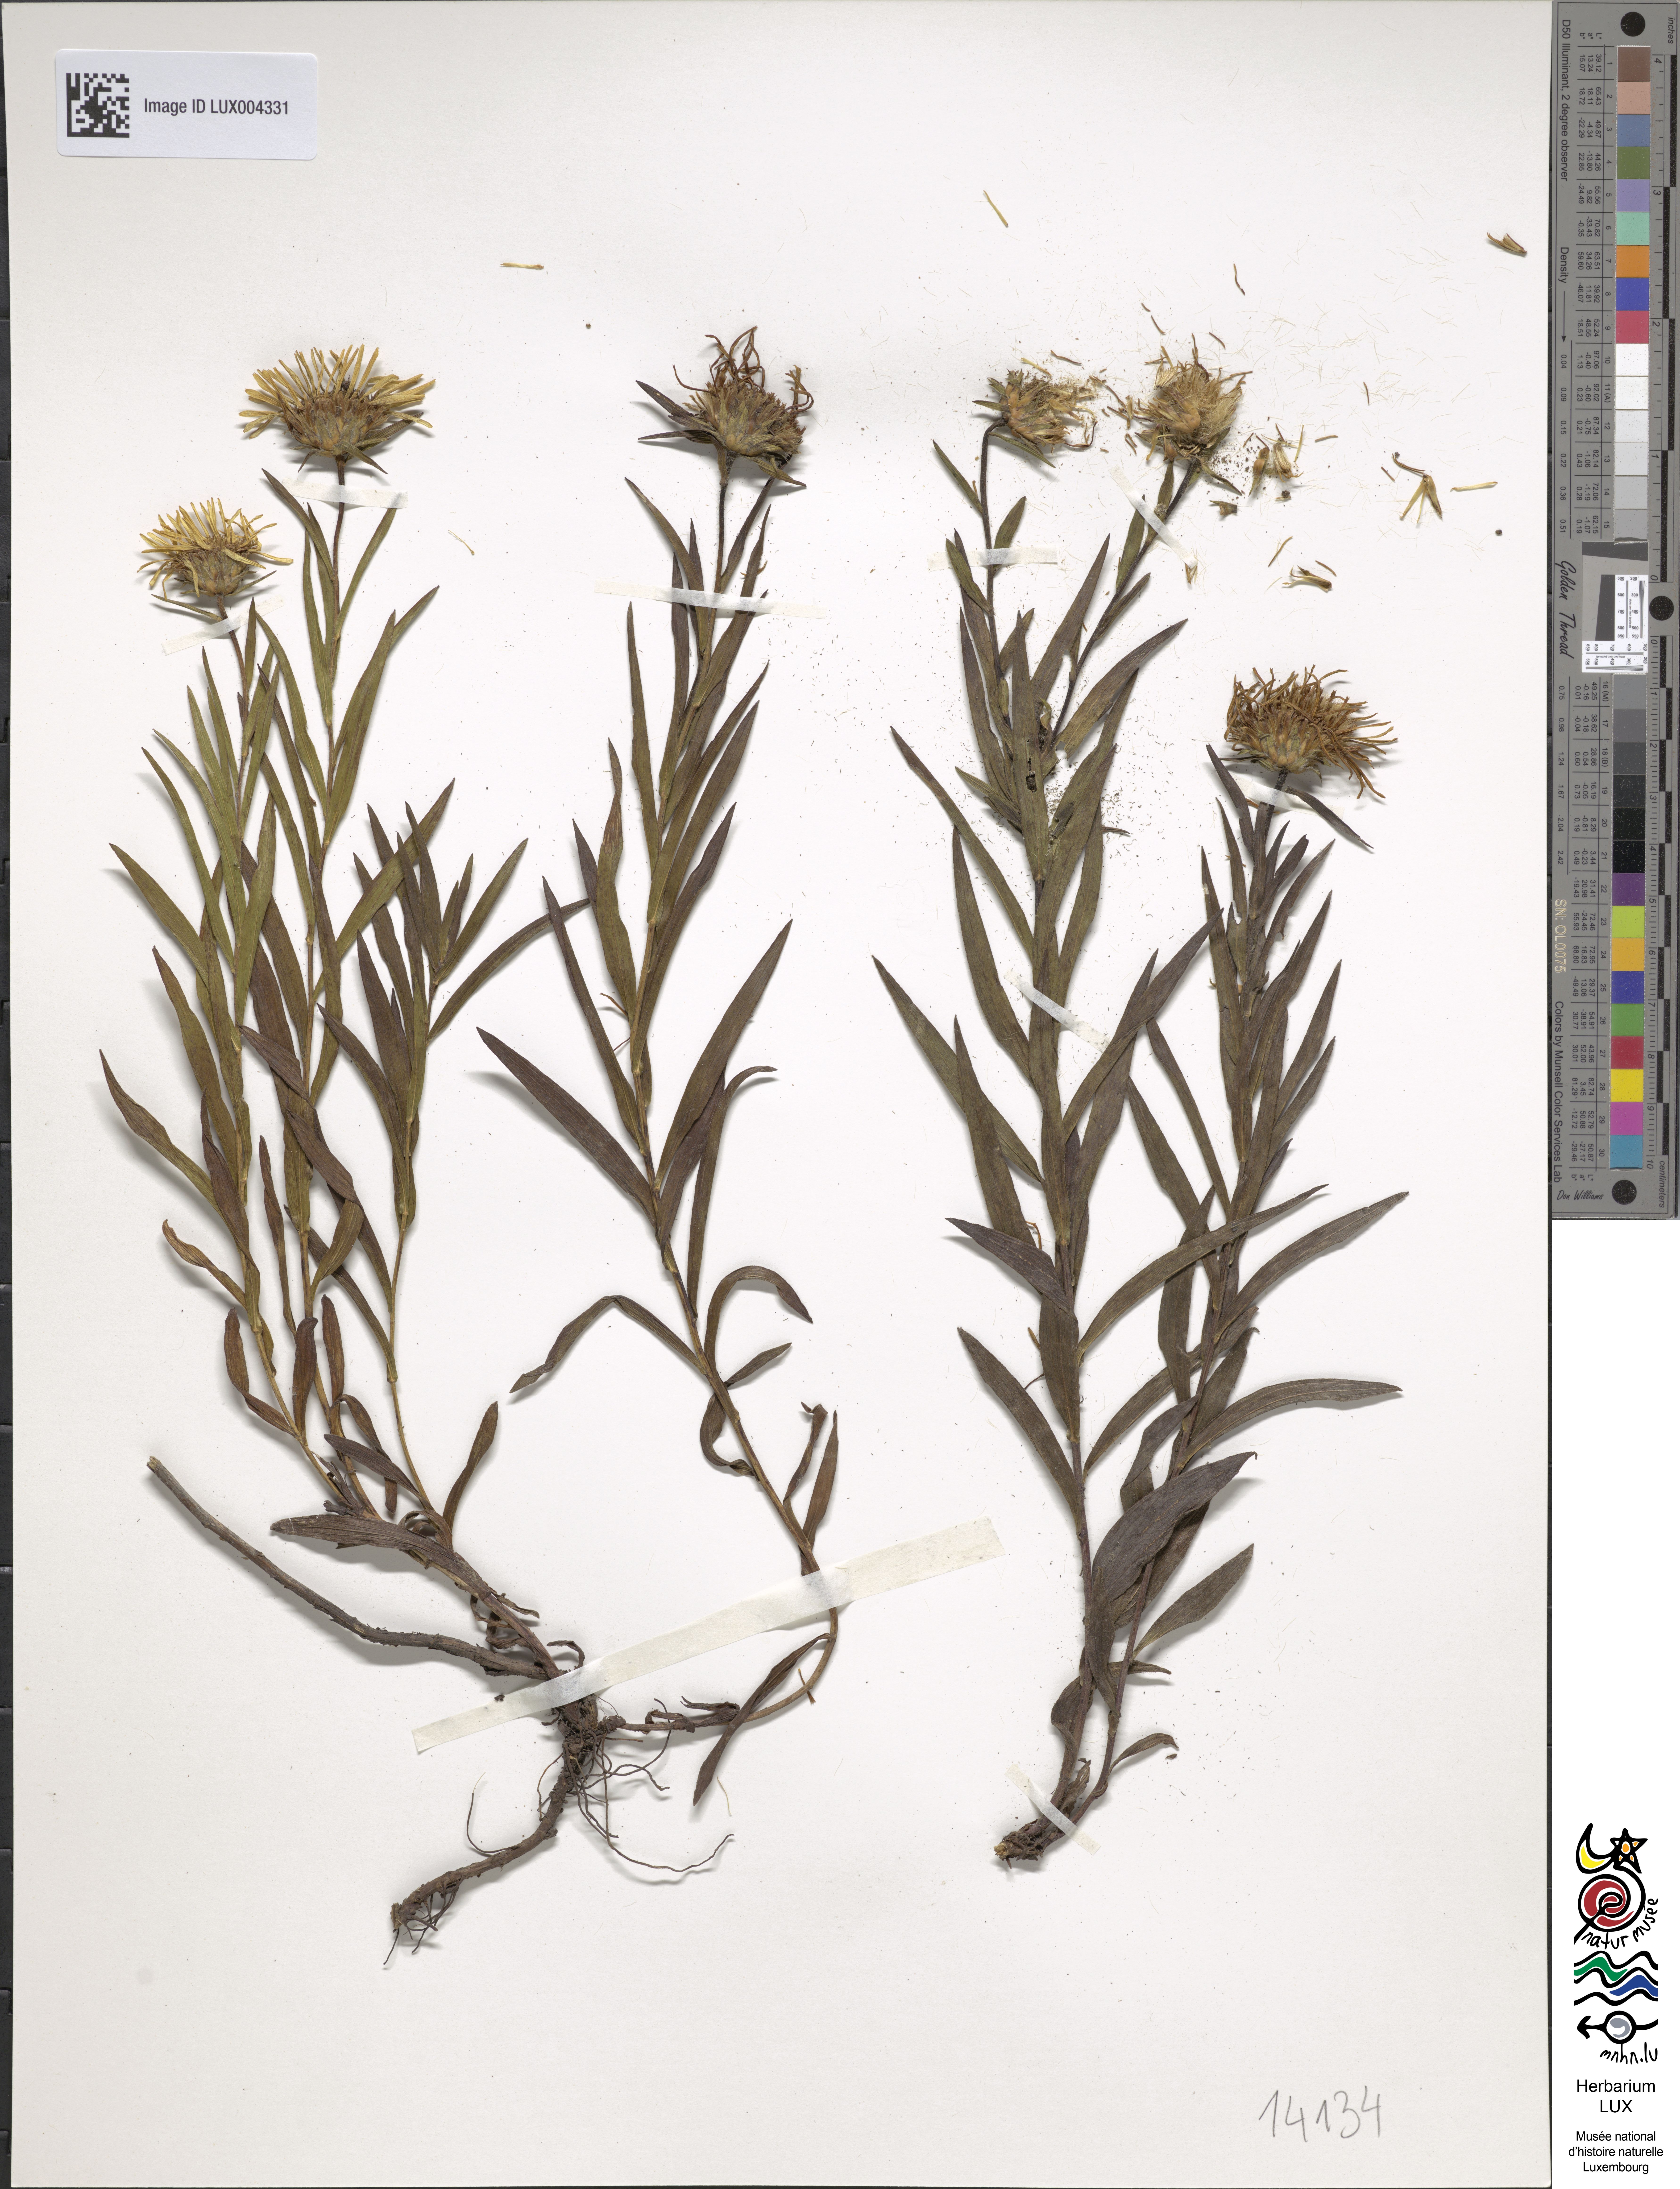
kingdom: Plantae
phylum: Tracheophyta
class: Magnoliopsida
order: Asterales
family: Asteraceae
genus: Pentanema
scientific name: Pentanema ensifolium
